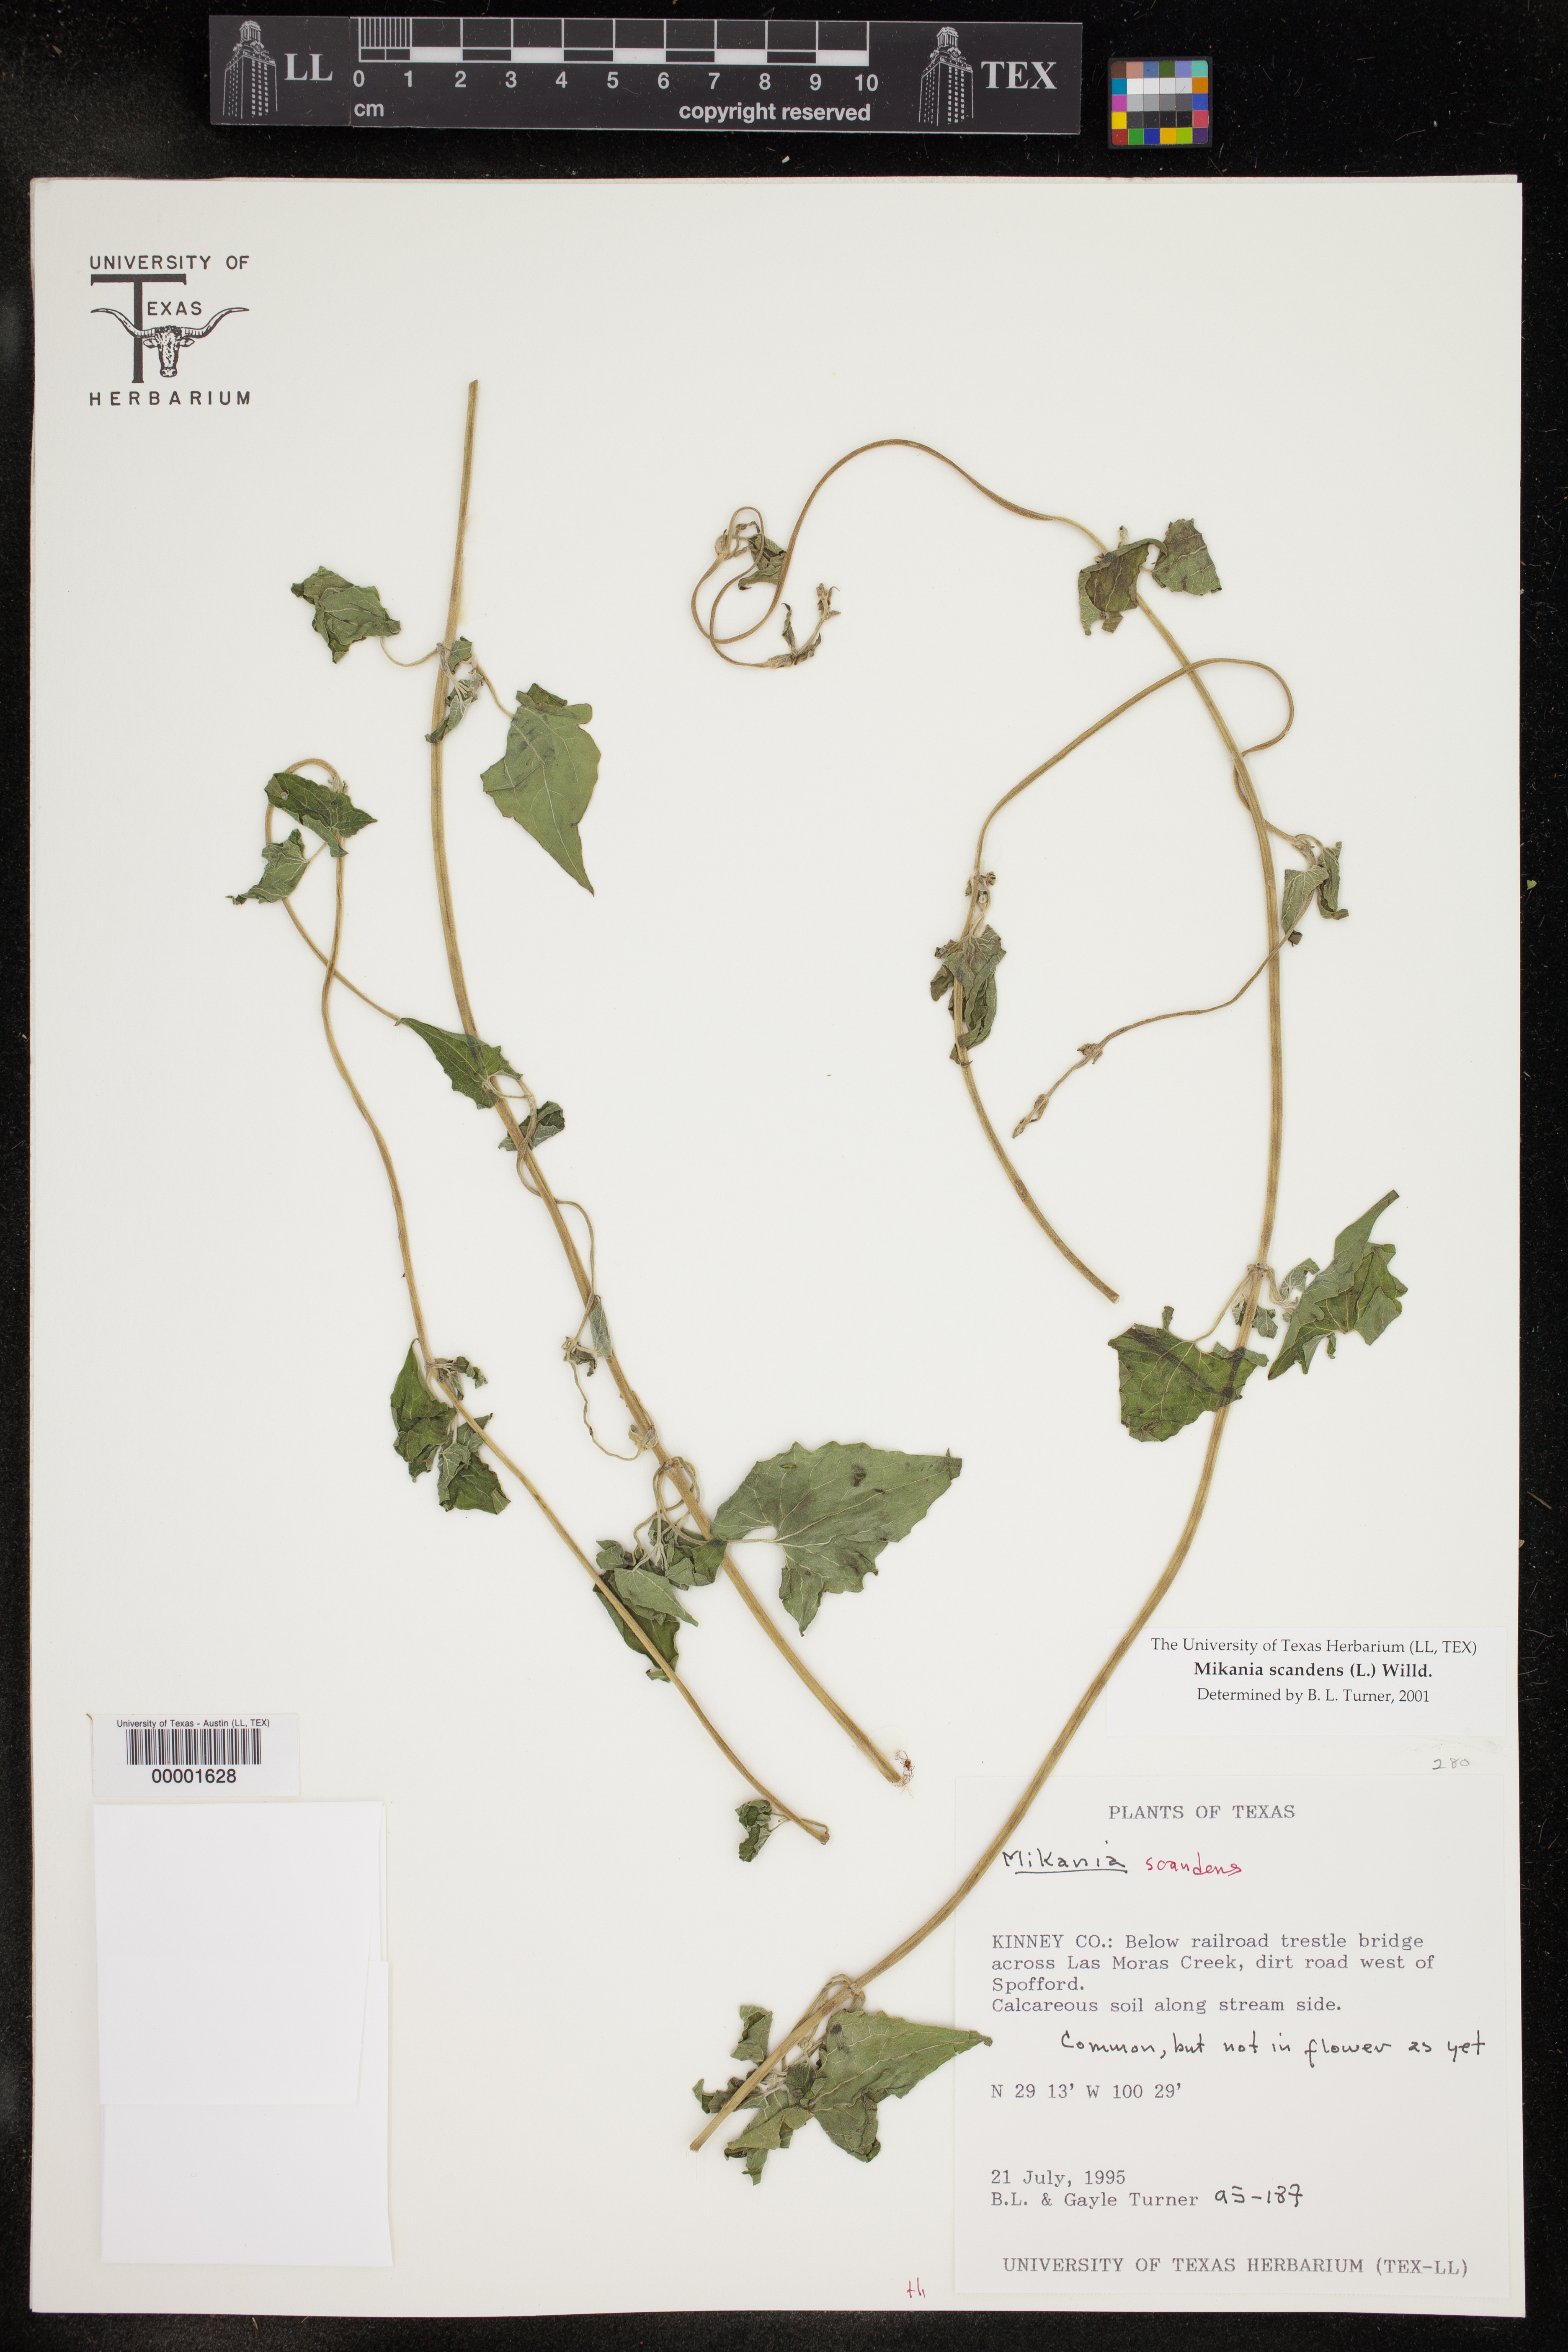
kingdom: Plantae
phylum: Tracheophyta
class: Magnoliopsida
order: Asterales
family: Asteraceae
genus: Mikania
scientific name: Mikania scandens
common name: Climbing hempvine
